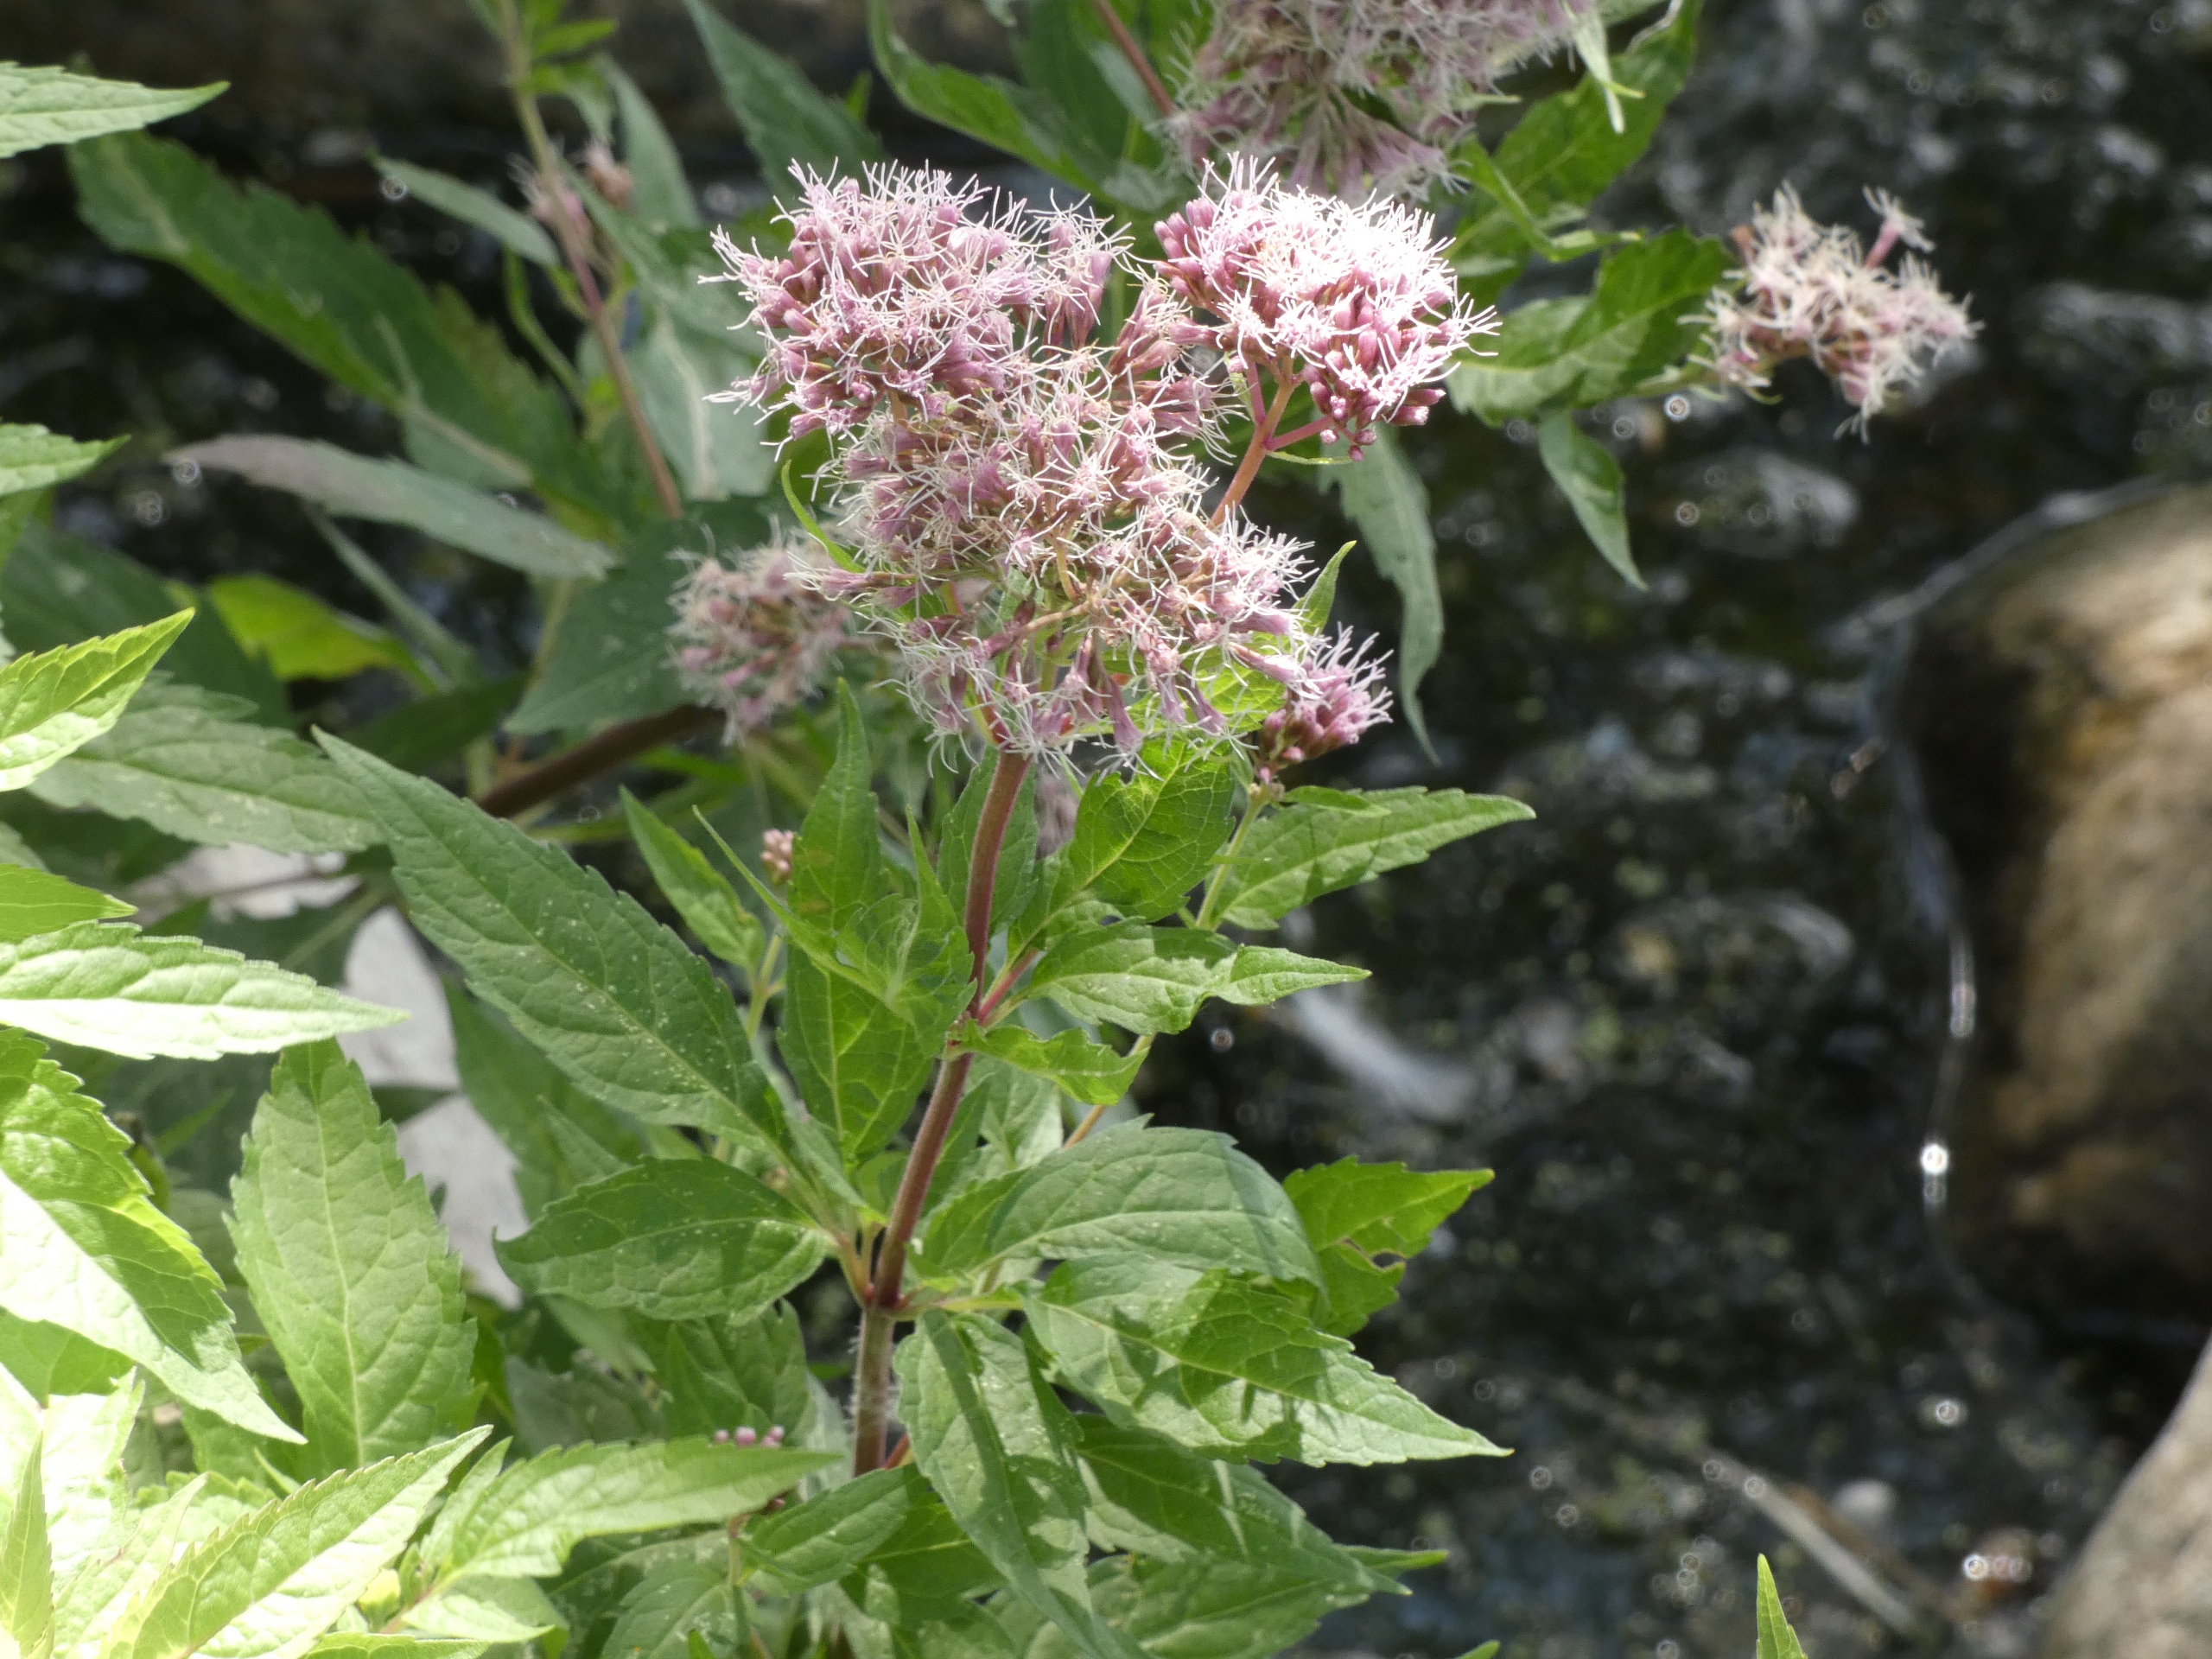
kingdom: Plantae
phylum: Tracheophyta
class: Magnoliopsida
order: Asterales
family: Asteraceae
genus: Eupatorium
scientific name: Eupatorium cannabinum
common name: Hjortetrøst
